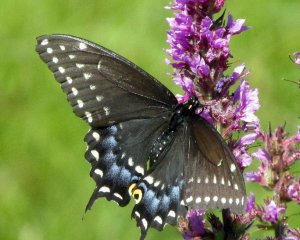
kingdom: Animalia
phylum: Arthropoda
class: Insecta
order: Lepidoptera
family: Papilionidae
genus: Papilio
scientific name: Papilio polyxenes
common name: Black Swallowtail
